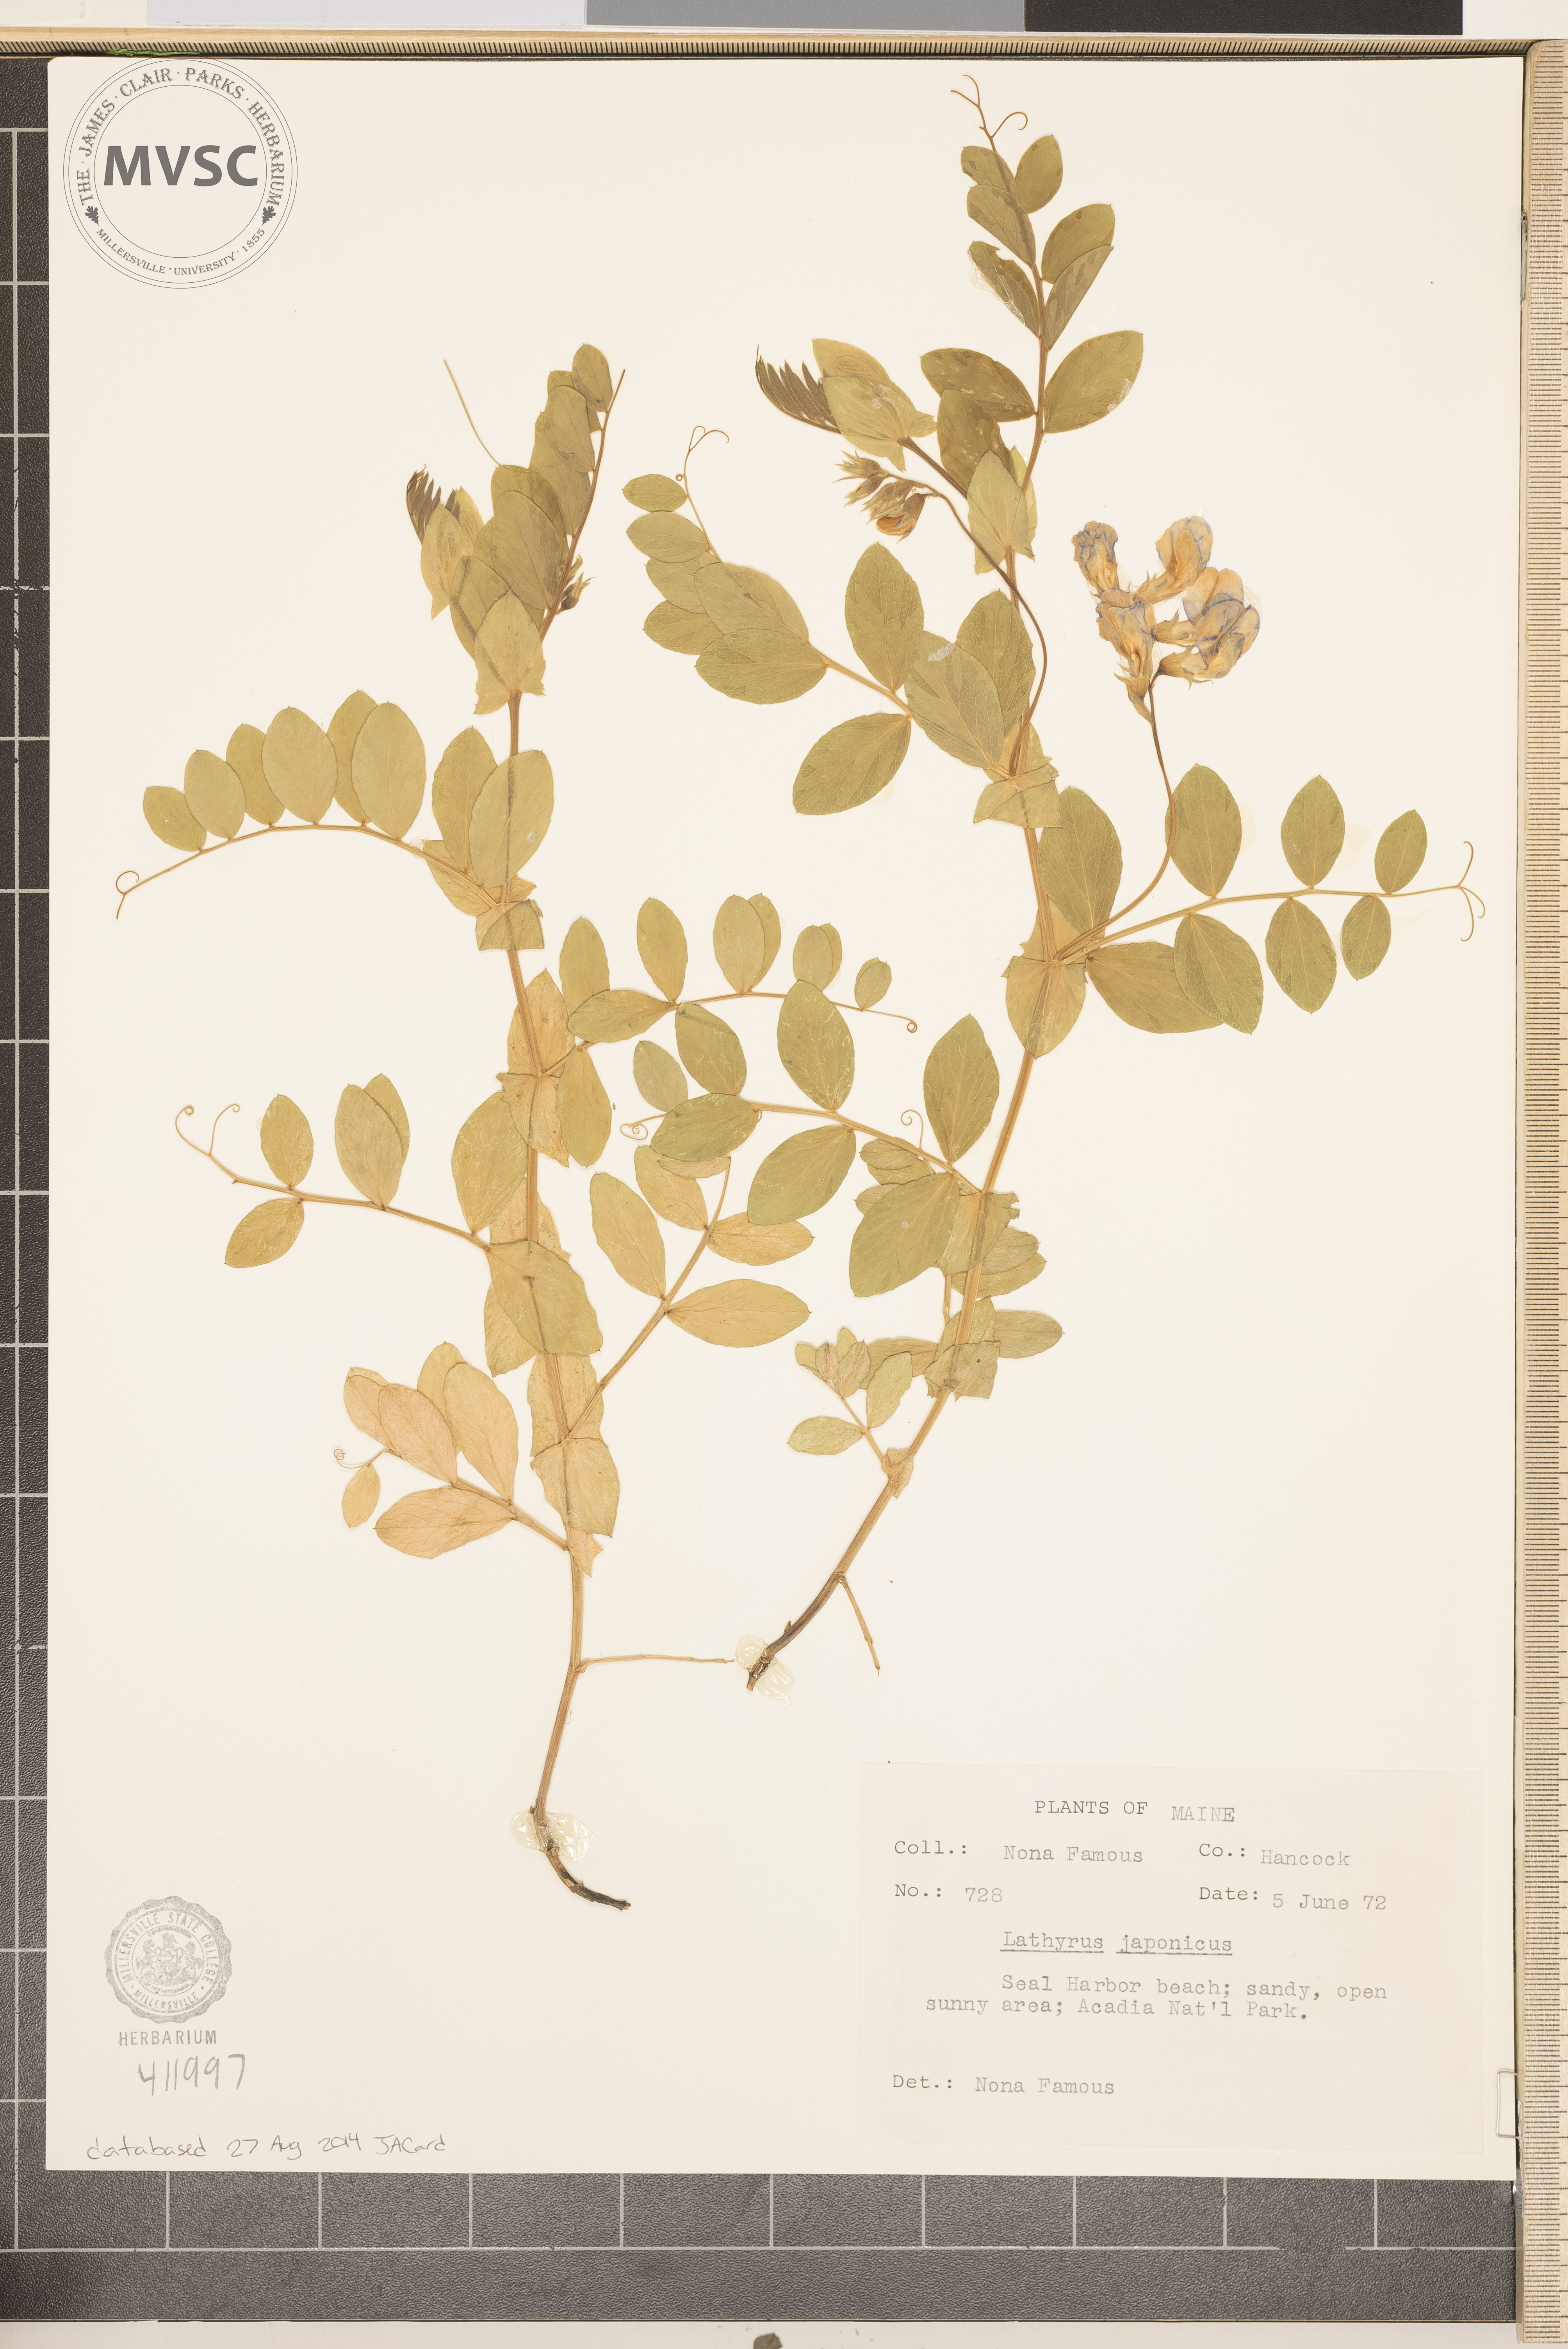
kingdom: Plantae
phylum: Tracheophyta
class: Magnoliopsida
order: Fabales
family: Fabaceae
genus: Lathyrus
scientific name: Lathyrus japonicus
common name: Sea pea
